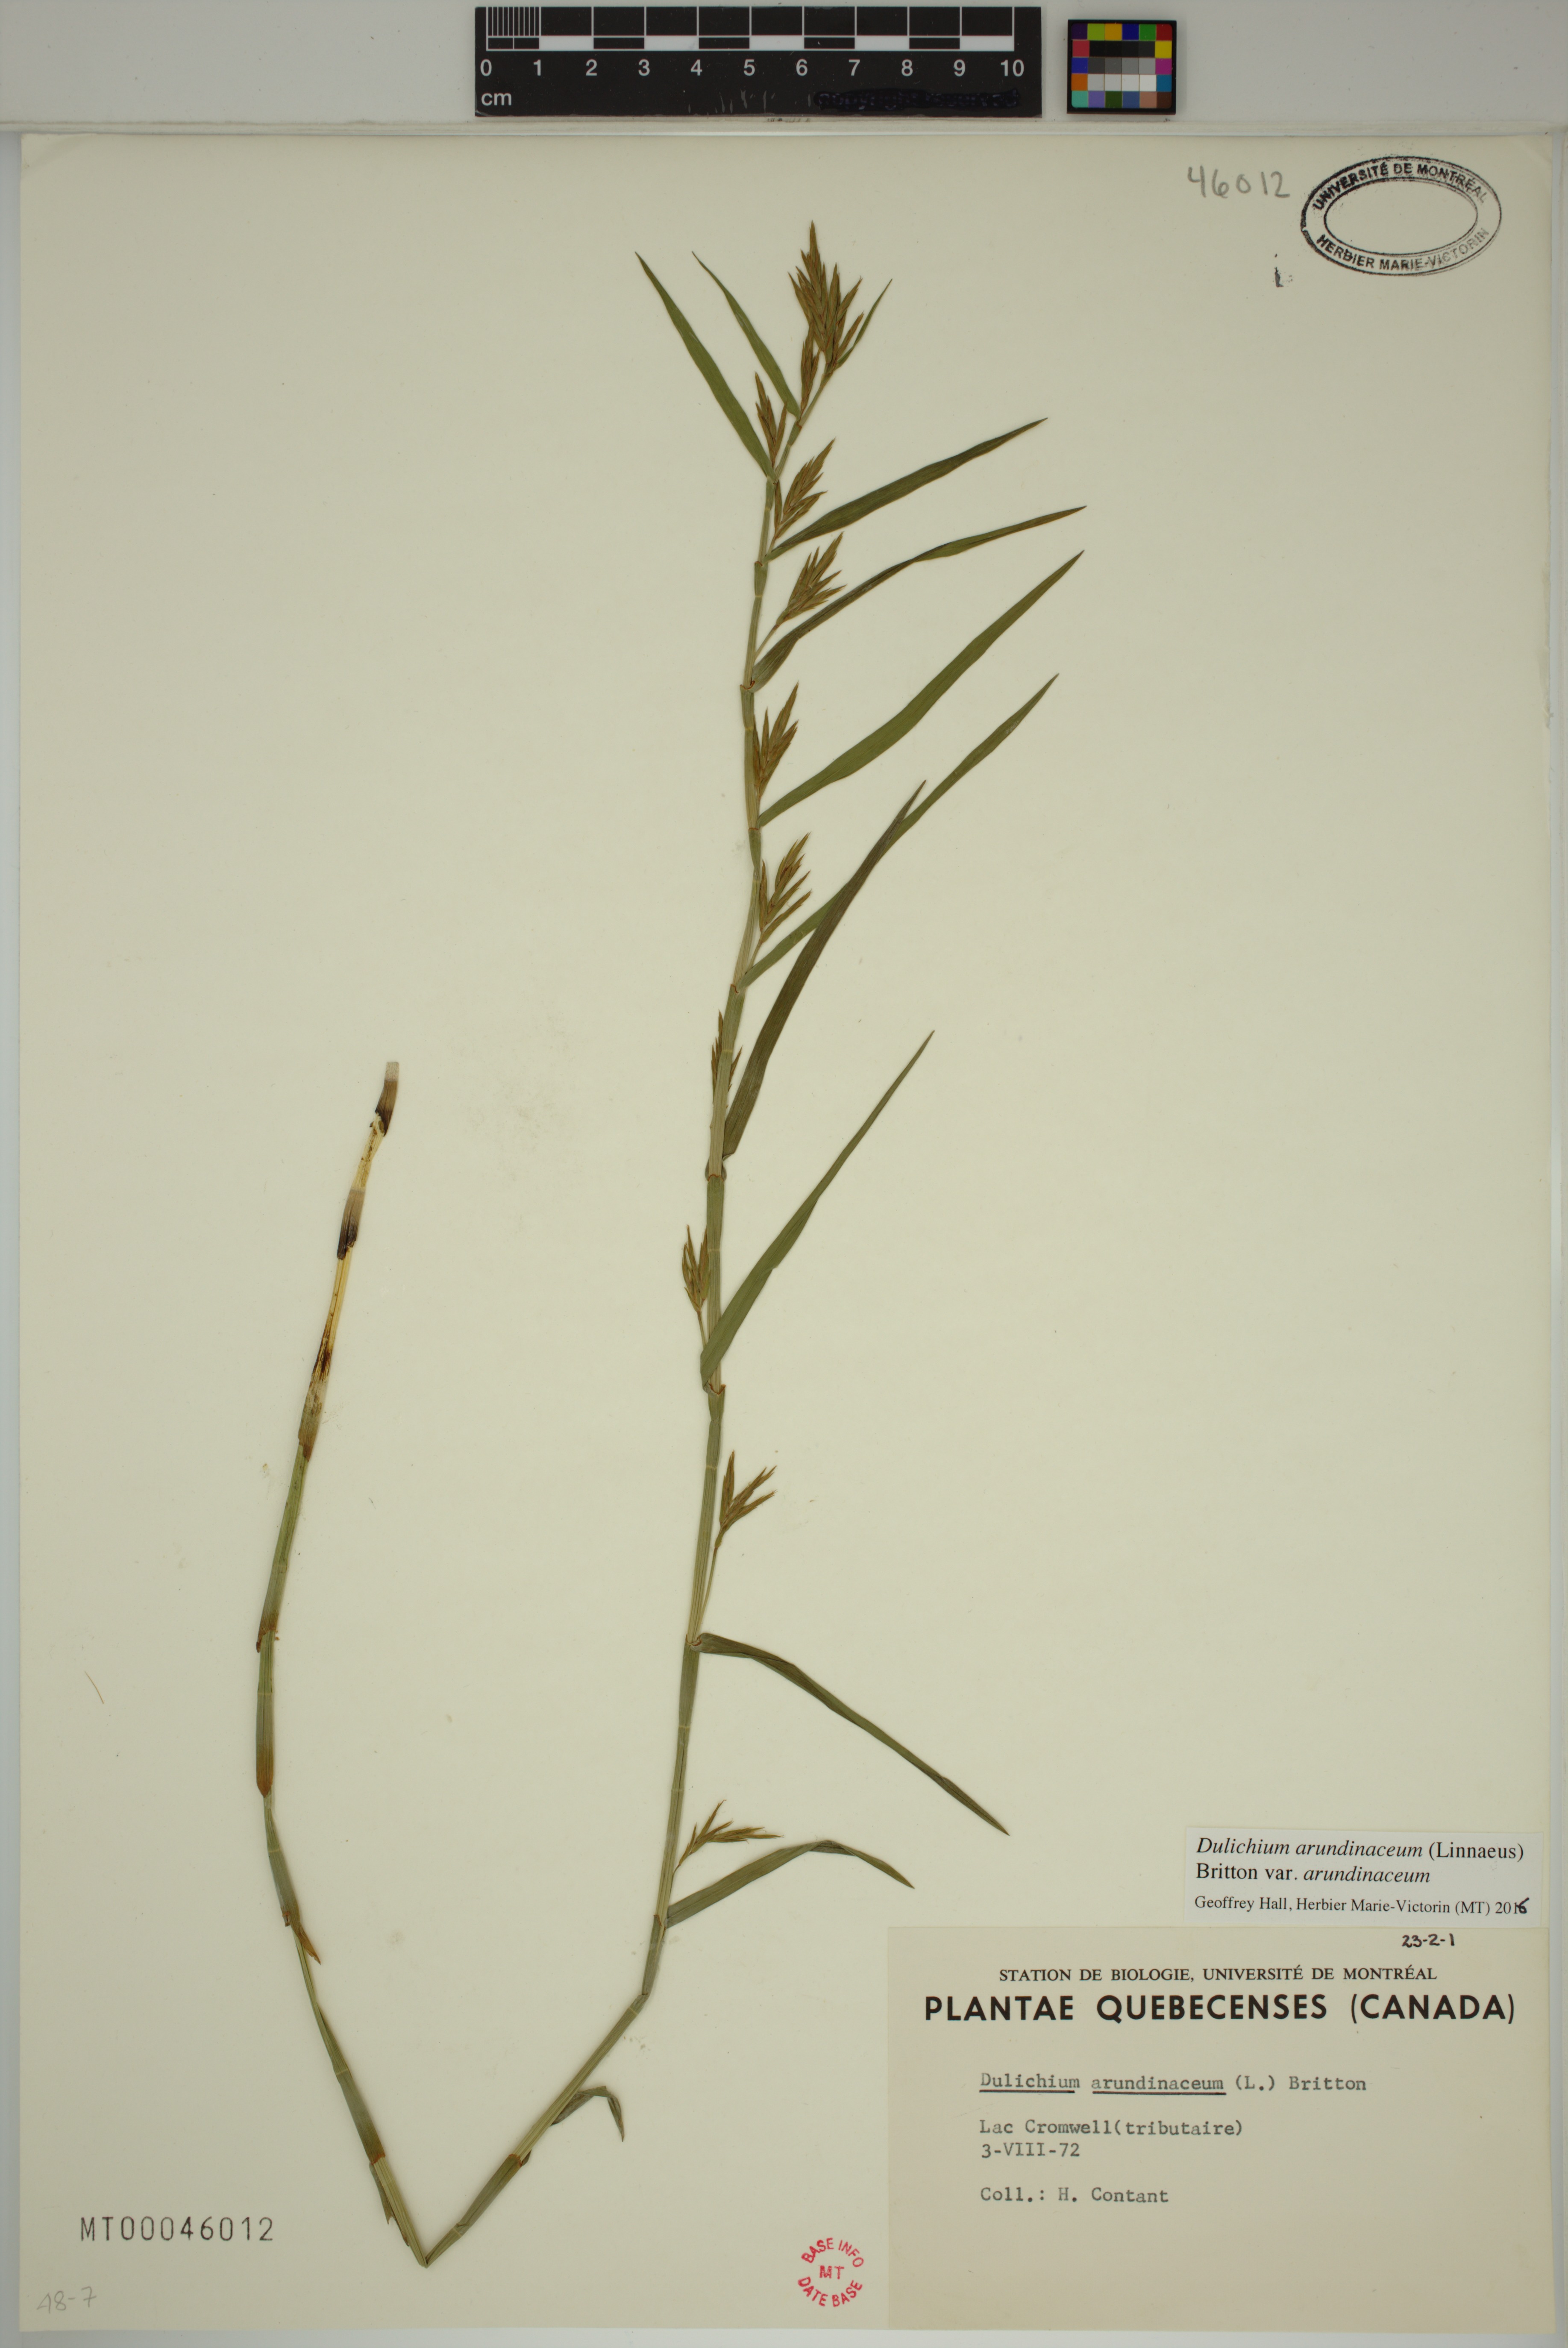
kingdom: Plantae
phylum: Tracheophyta
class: Liliopsida
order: Poales
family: Cyperaceae
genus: Dulichium
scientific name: Dulichium arundinaceum
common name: Three-way sedge
